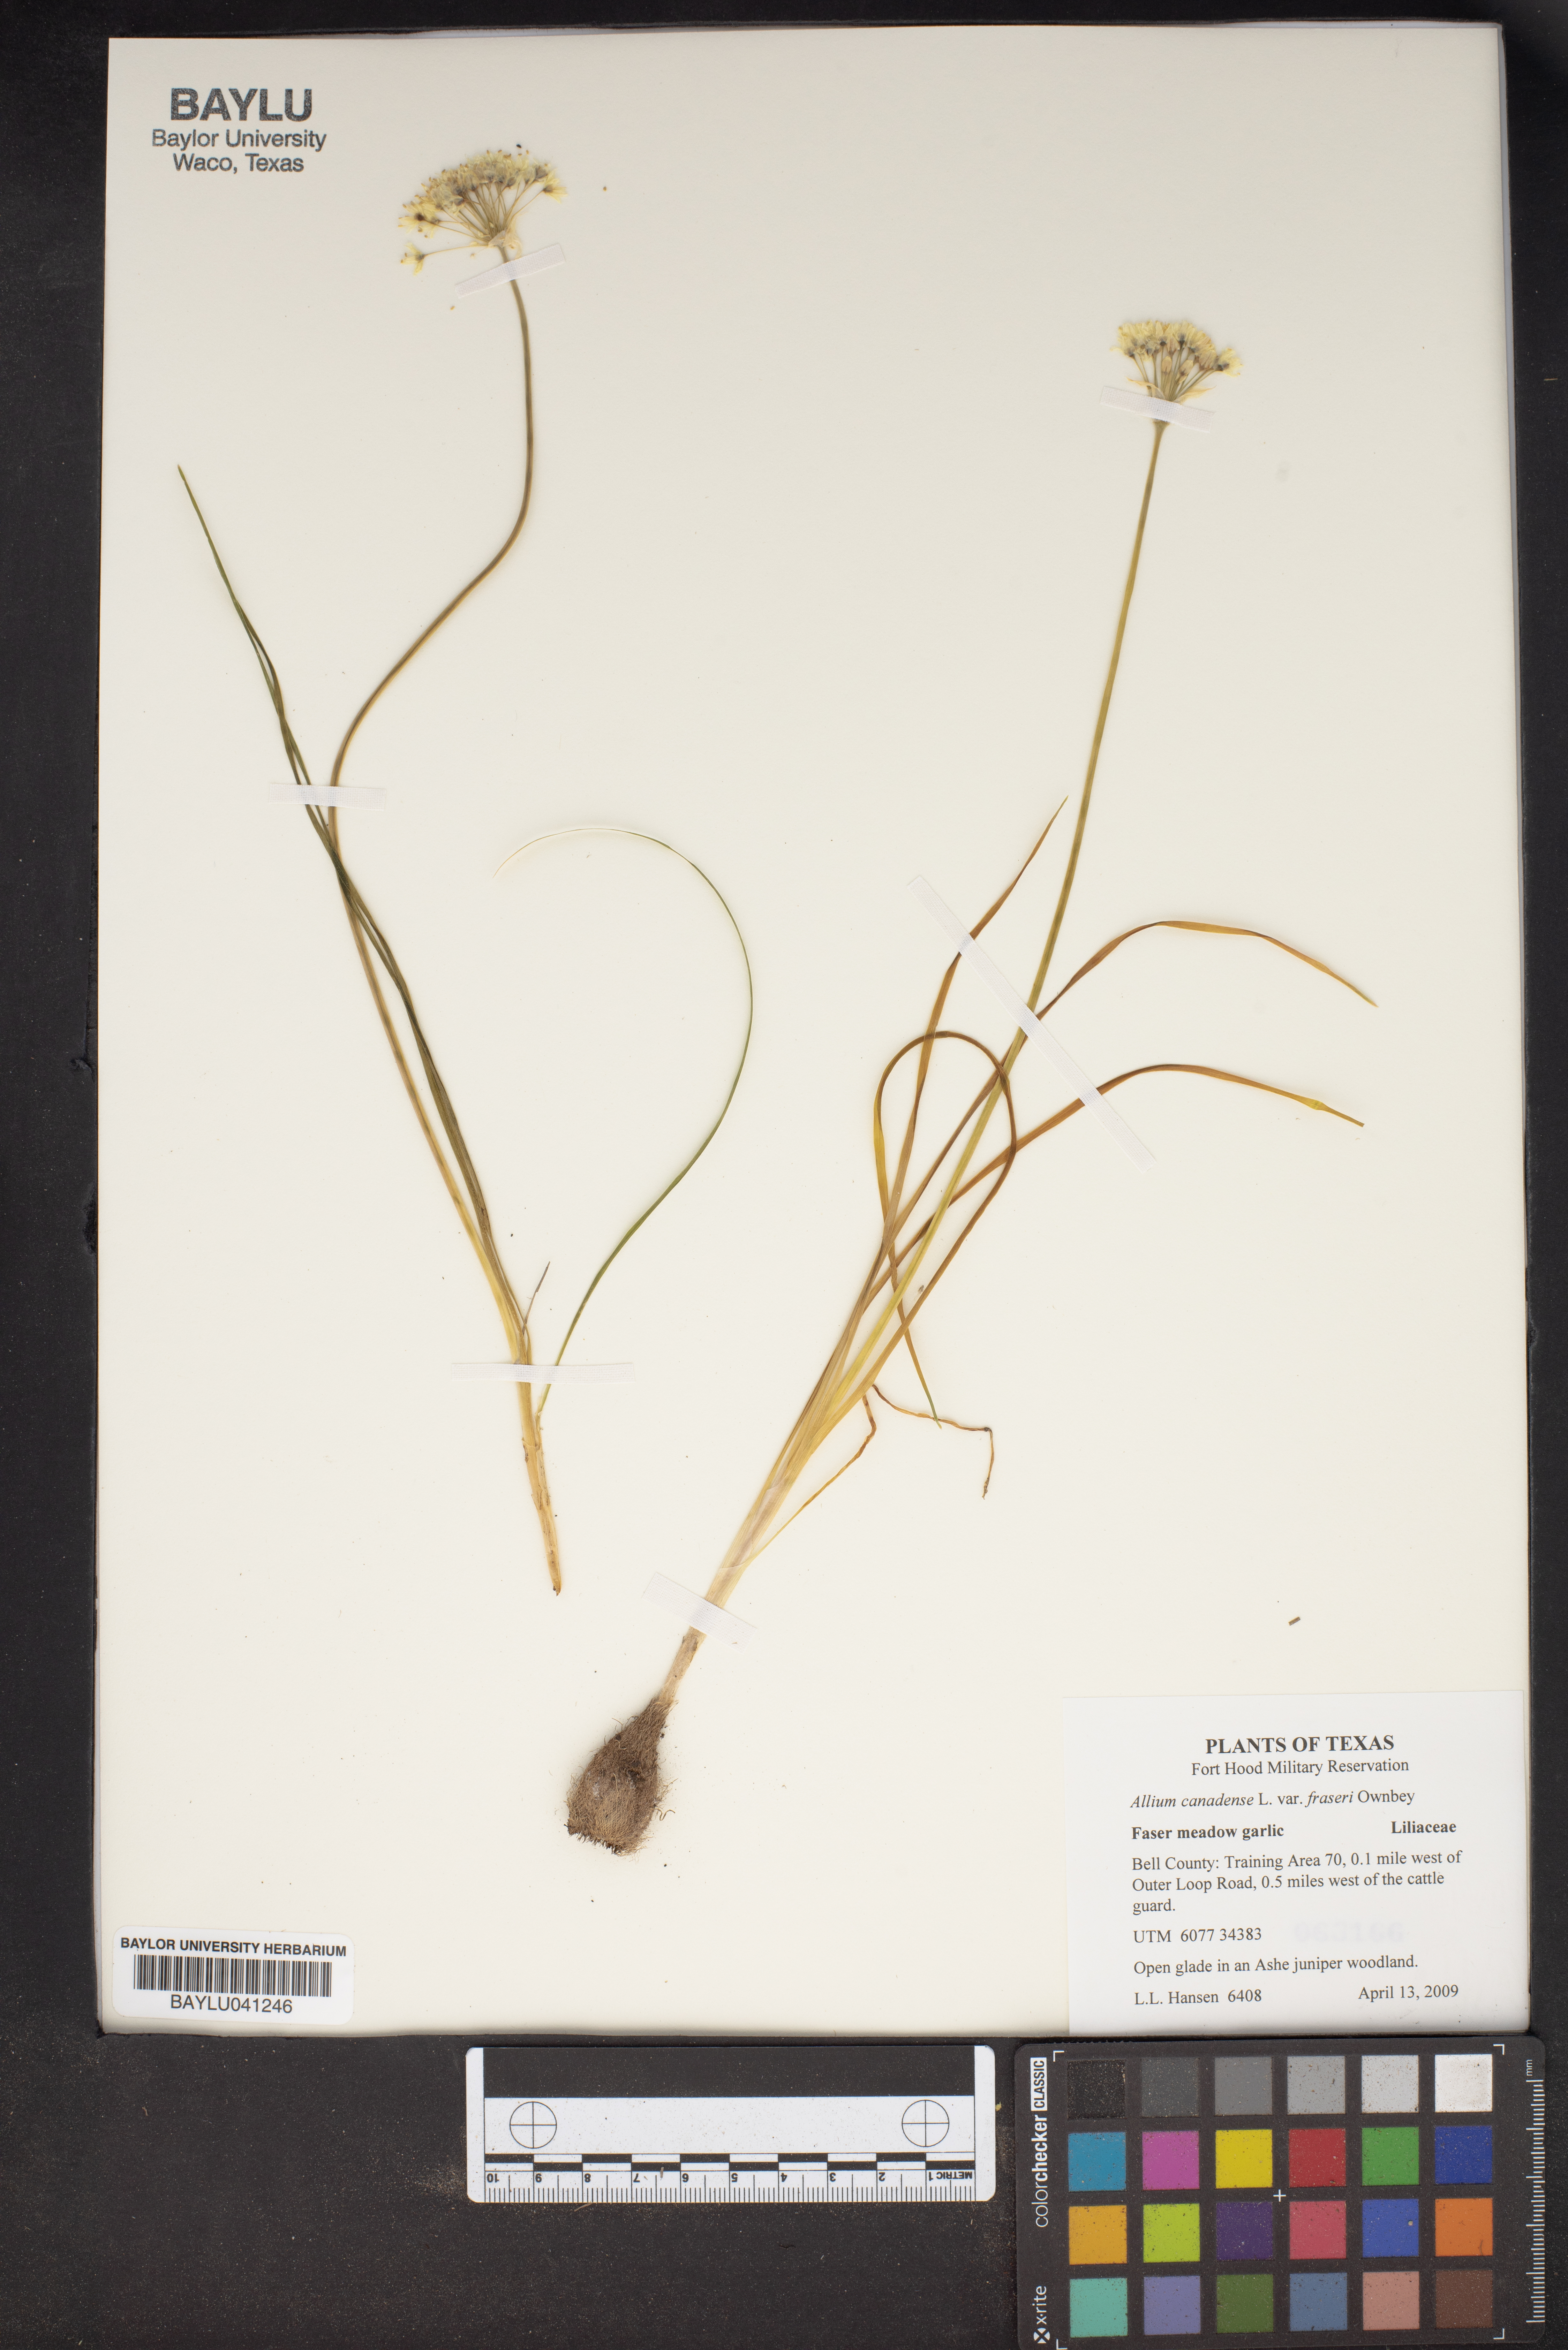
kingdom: Plantae
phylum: Tracheophyta
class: Liliopsida
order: Asparagales
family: Amaryllidaceae
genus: Allium
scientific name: Allium canadense
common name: Meadow garlic
